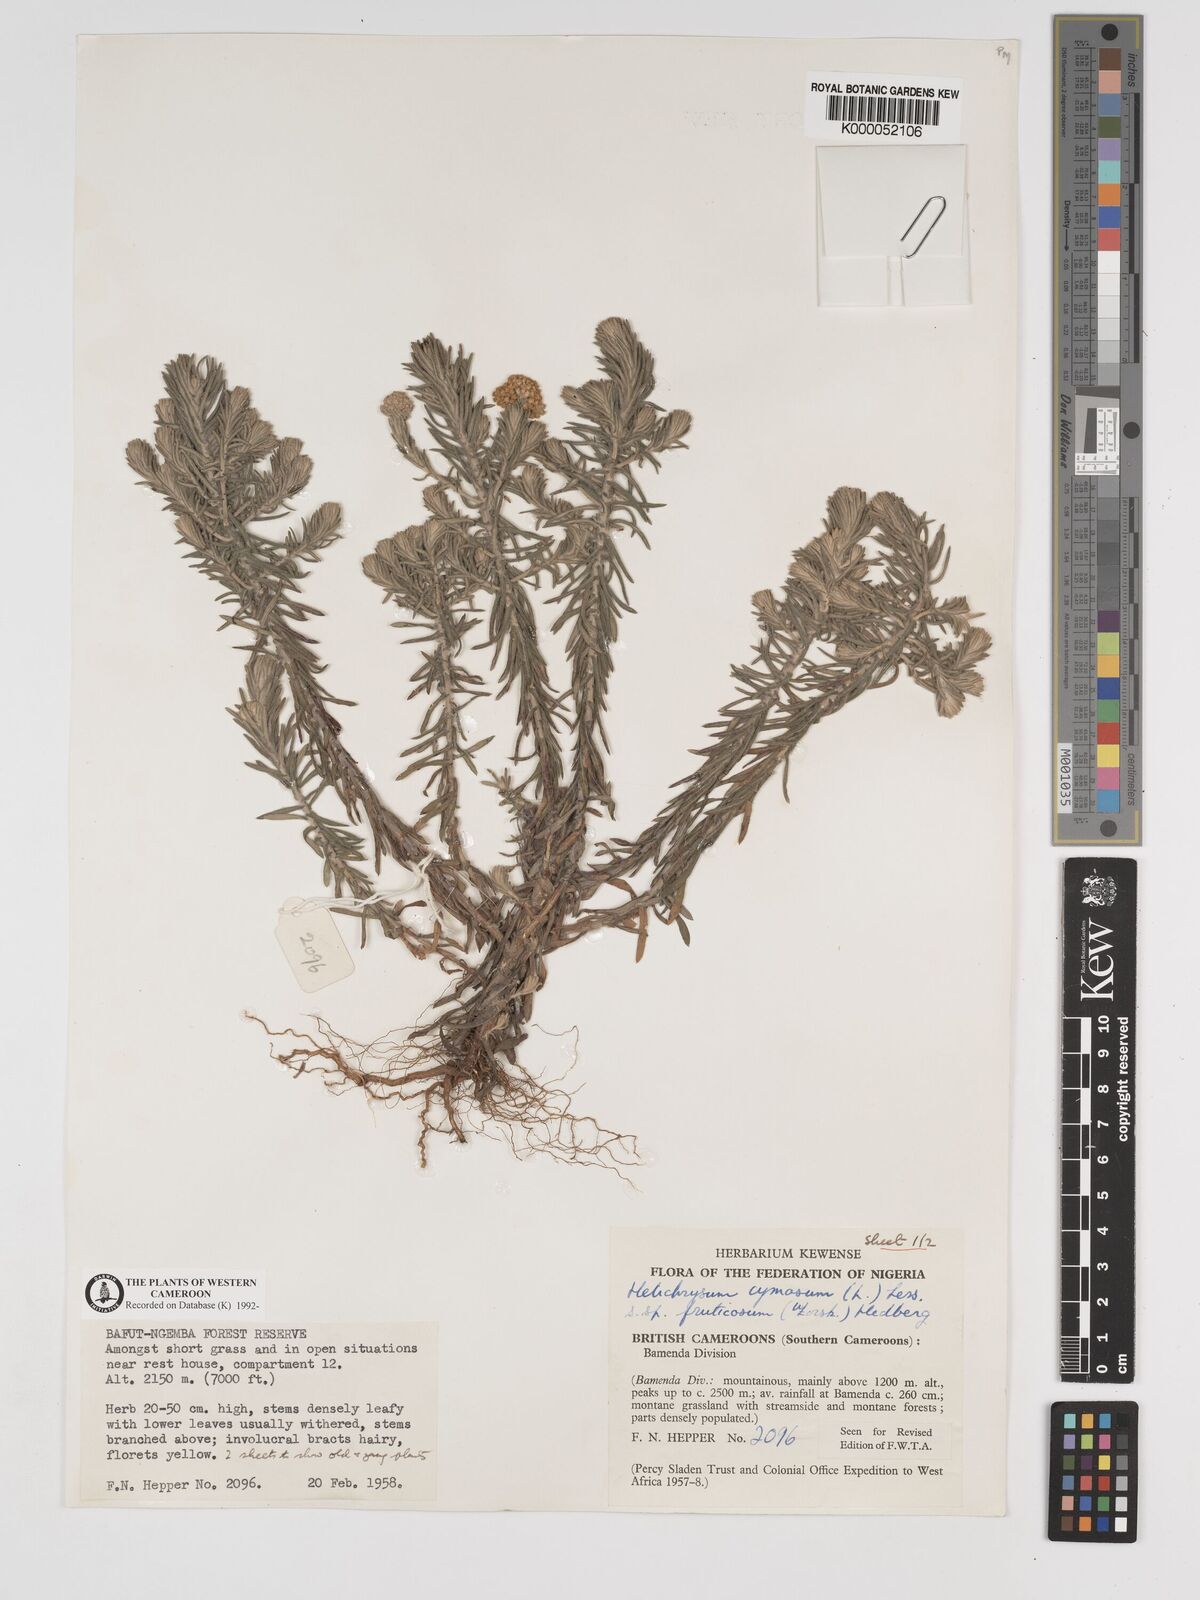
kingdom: Plantae
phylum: Tracheophyta
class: Magnoliopsida
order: Asterales
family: Asteraceae
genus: Helichrysum
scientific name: Helichrysum forskahlii
